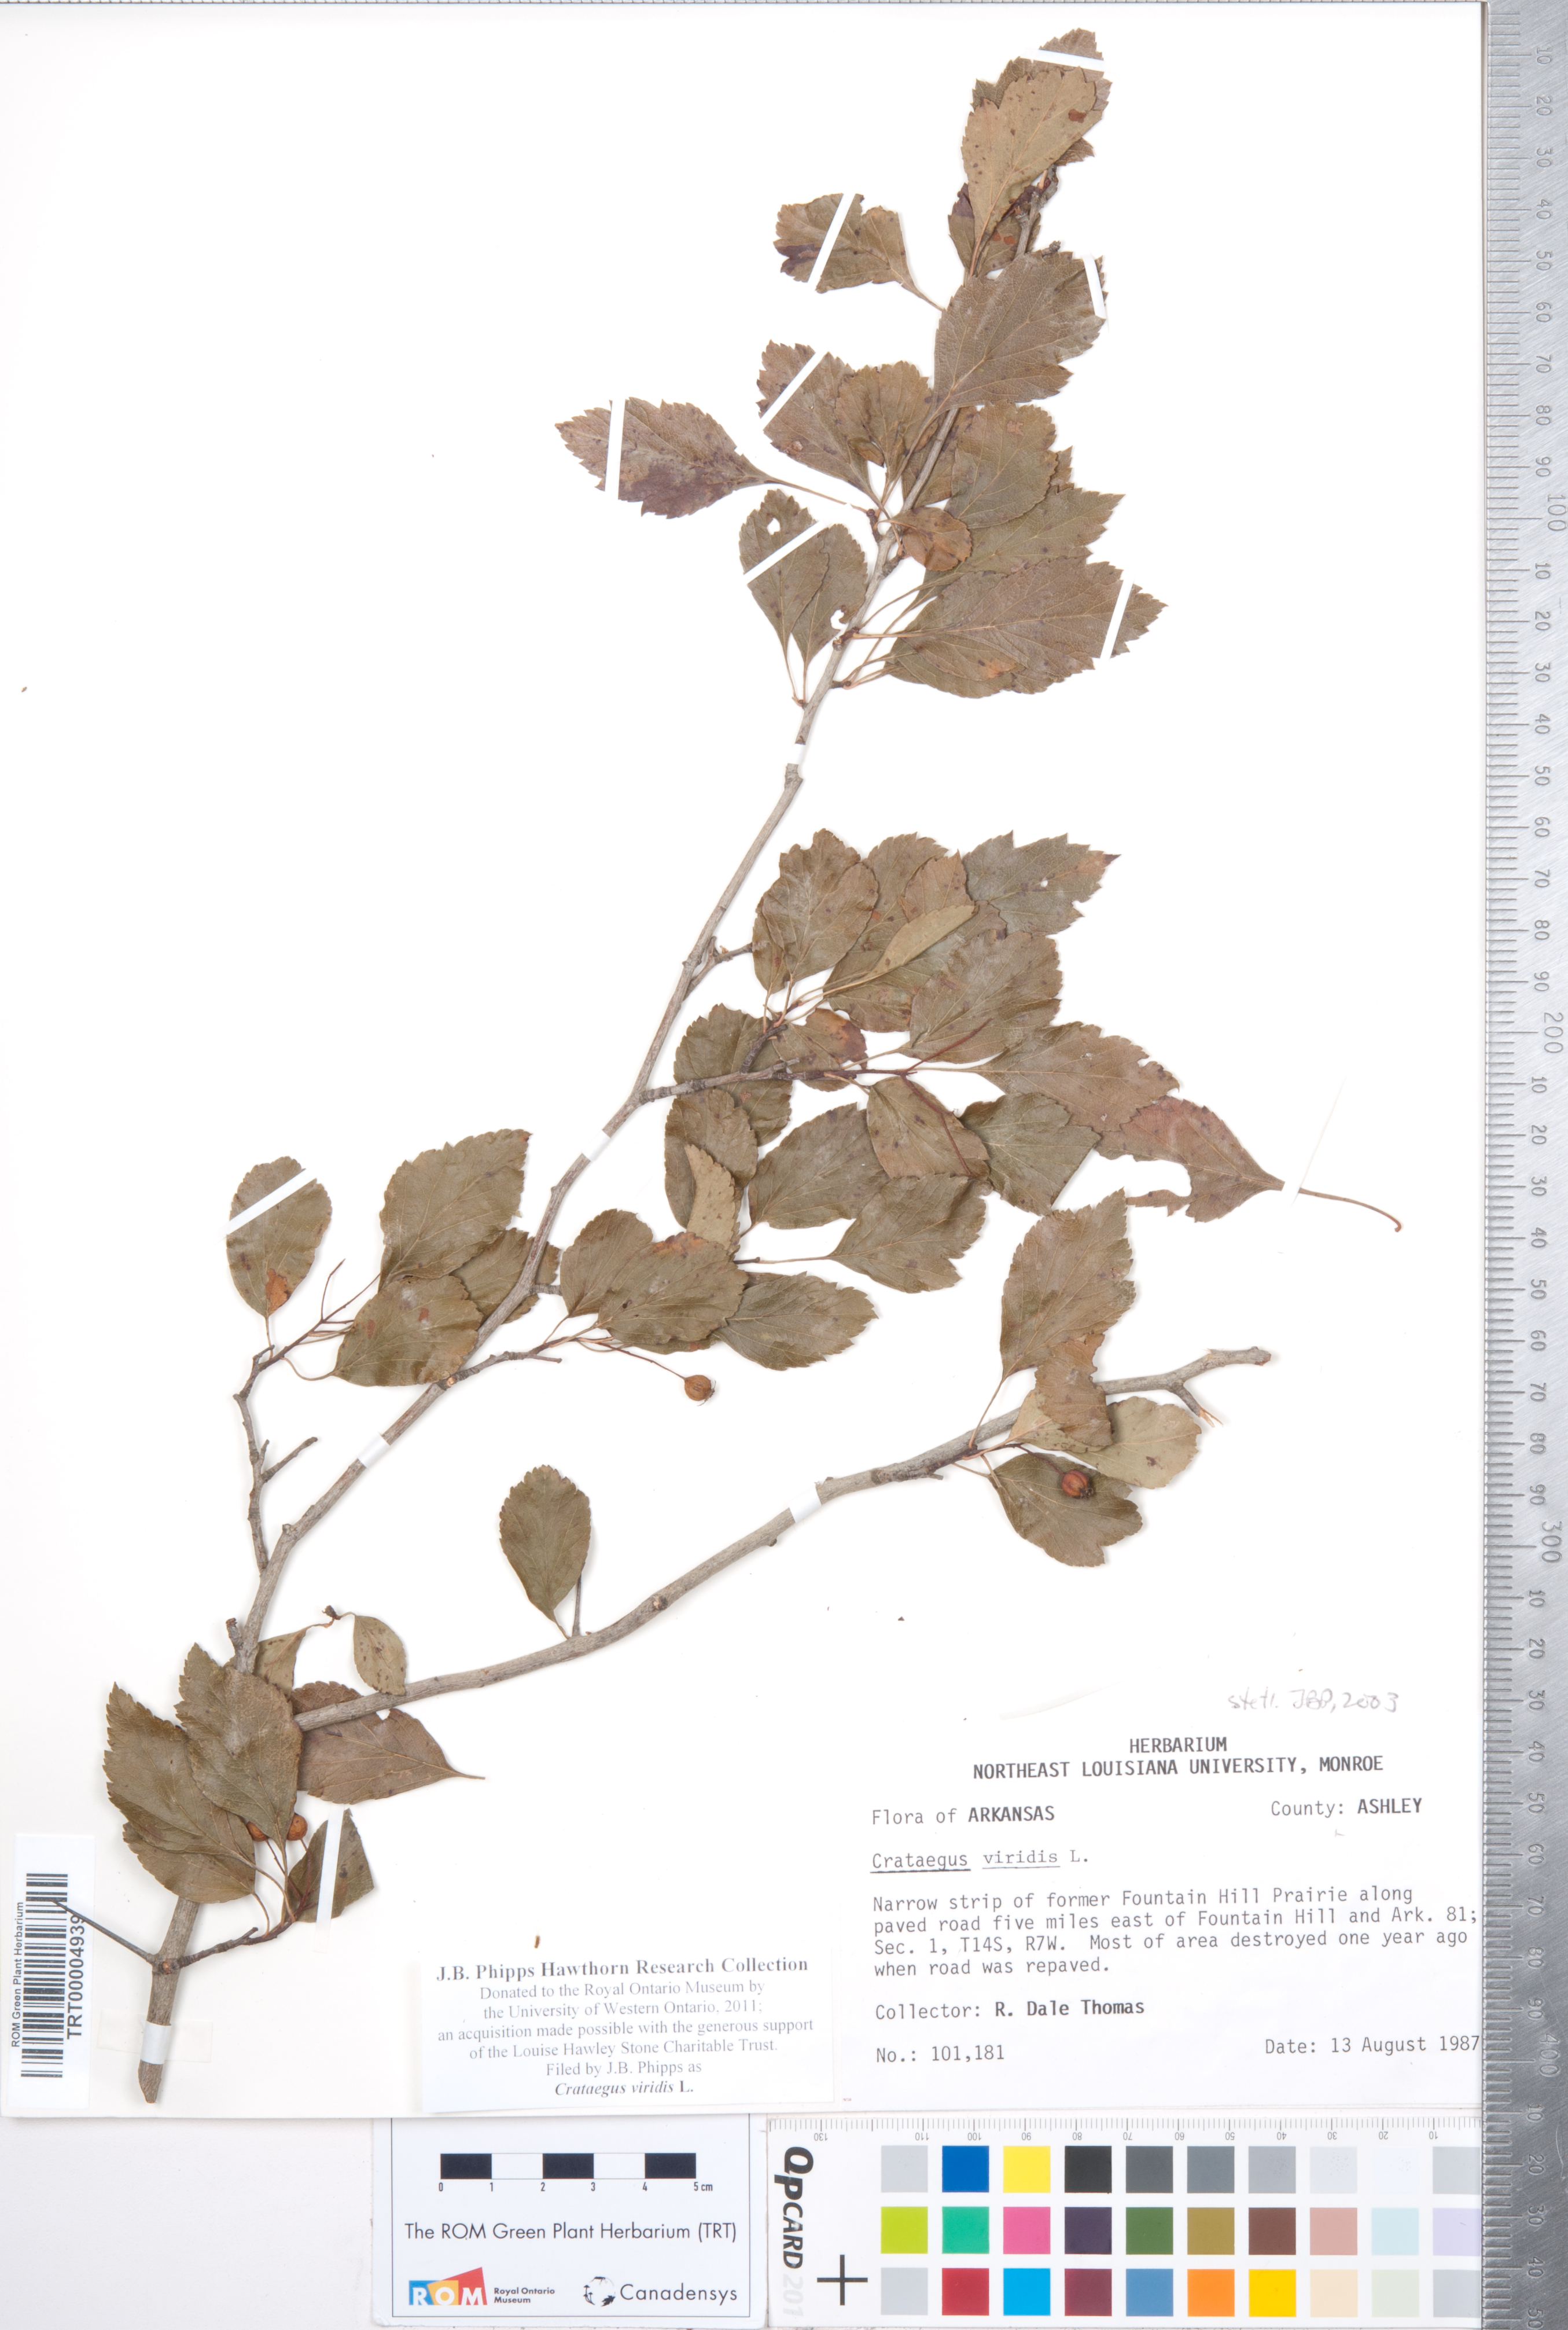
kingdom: Plantae
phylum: Tracheophyta
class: Magnoliopsida
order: Rosales
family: Rosaceae
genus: Crataegus
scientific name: Crataegus viridis
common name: Southernthorn
